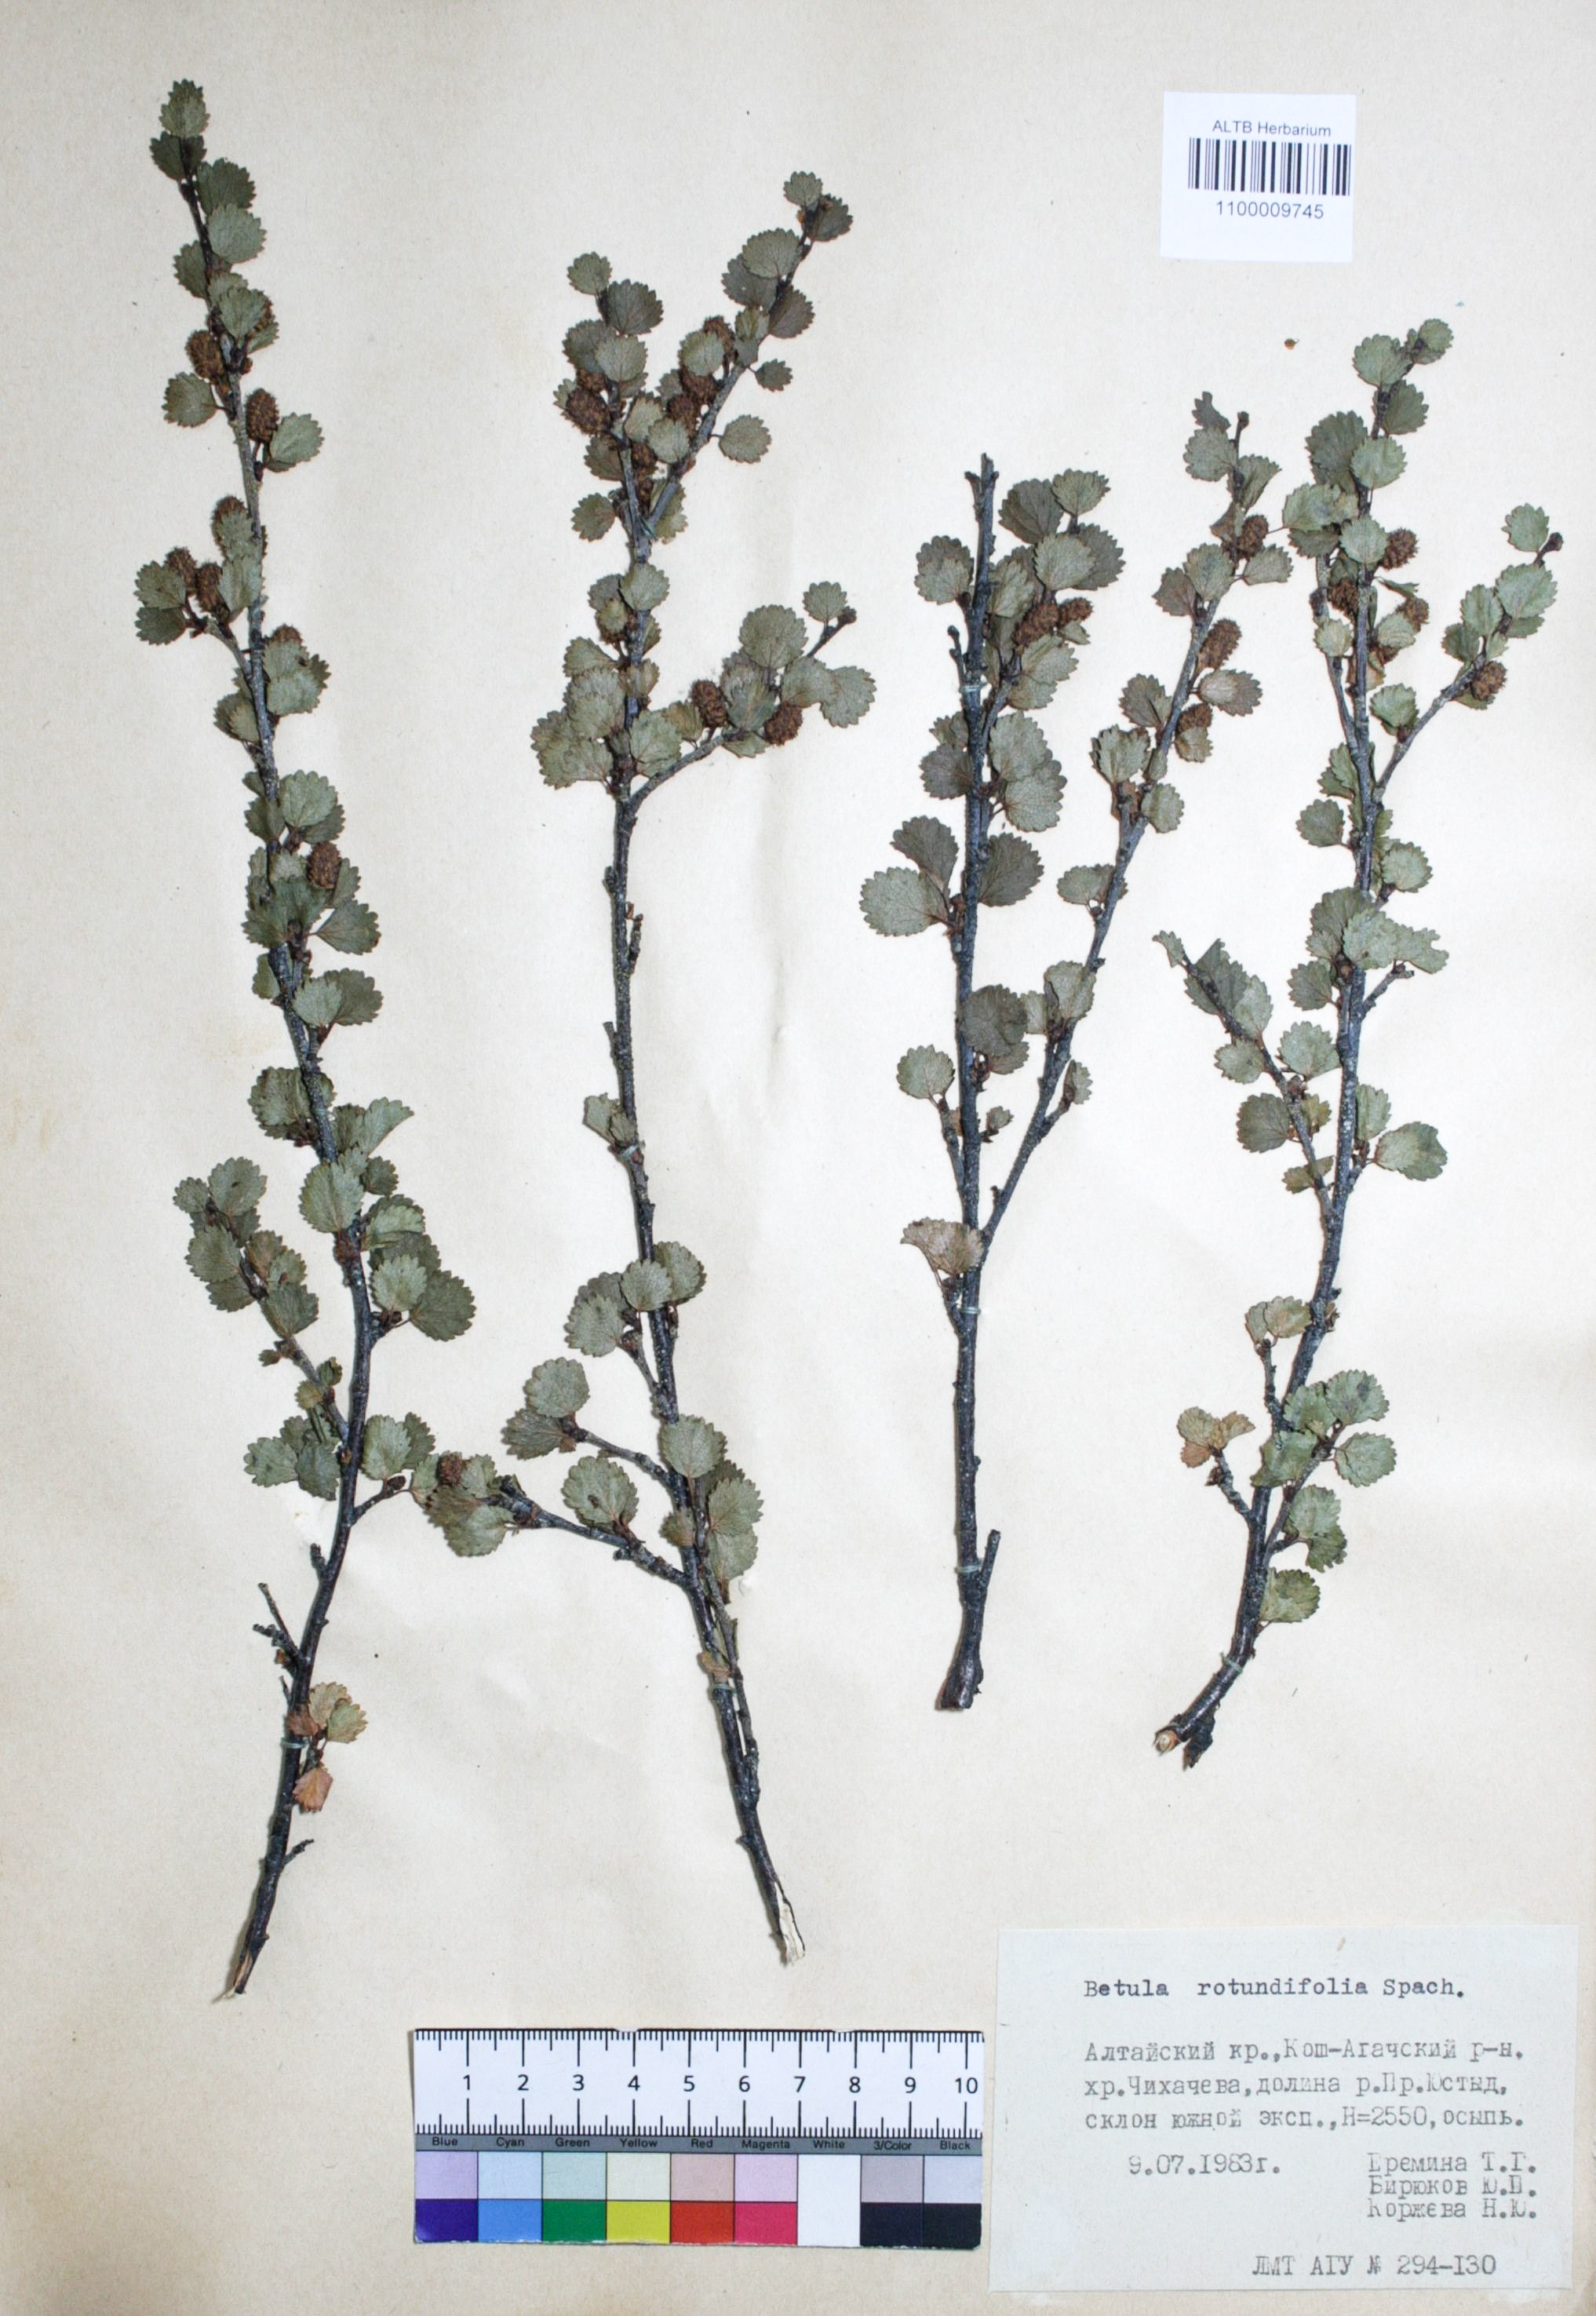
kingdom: Plantae
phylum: Tracheophyta
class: Magnoliopsida
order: Fagales
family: Betulaceae
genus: Betula
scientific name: Betula glandulosa
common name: Dwarf birch
